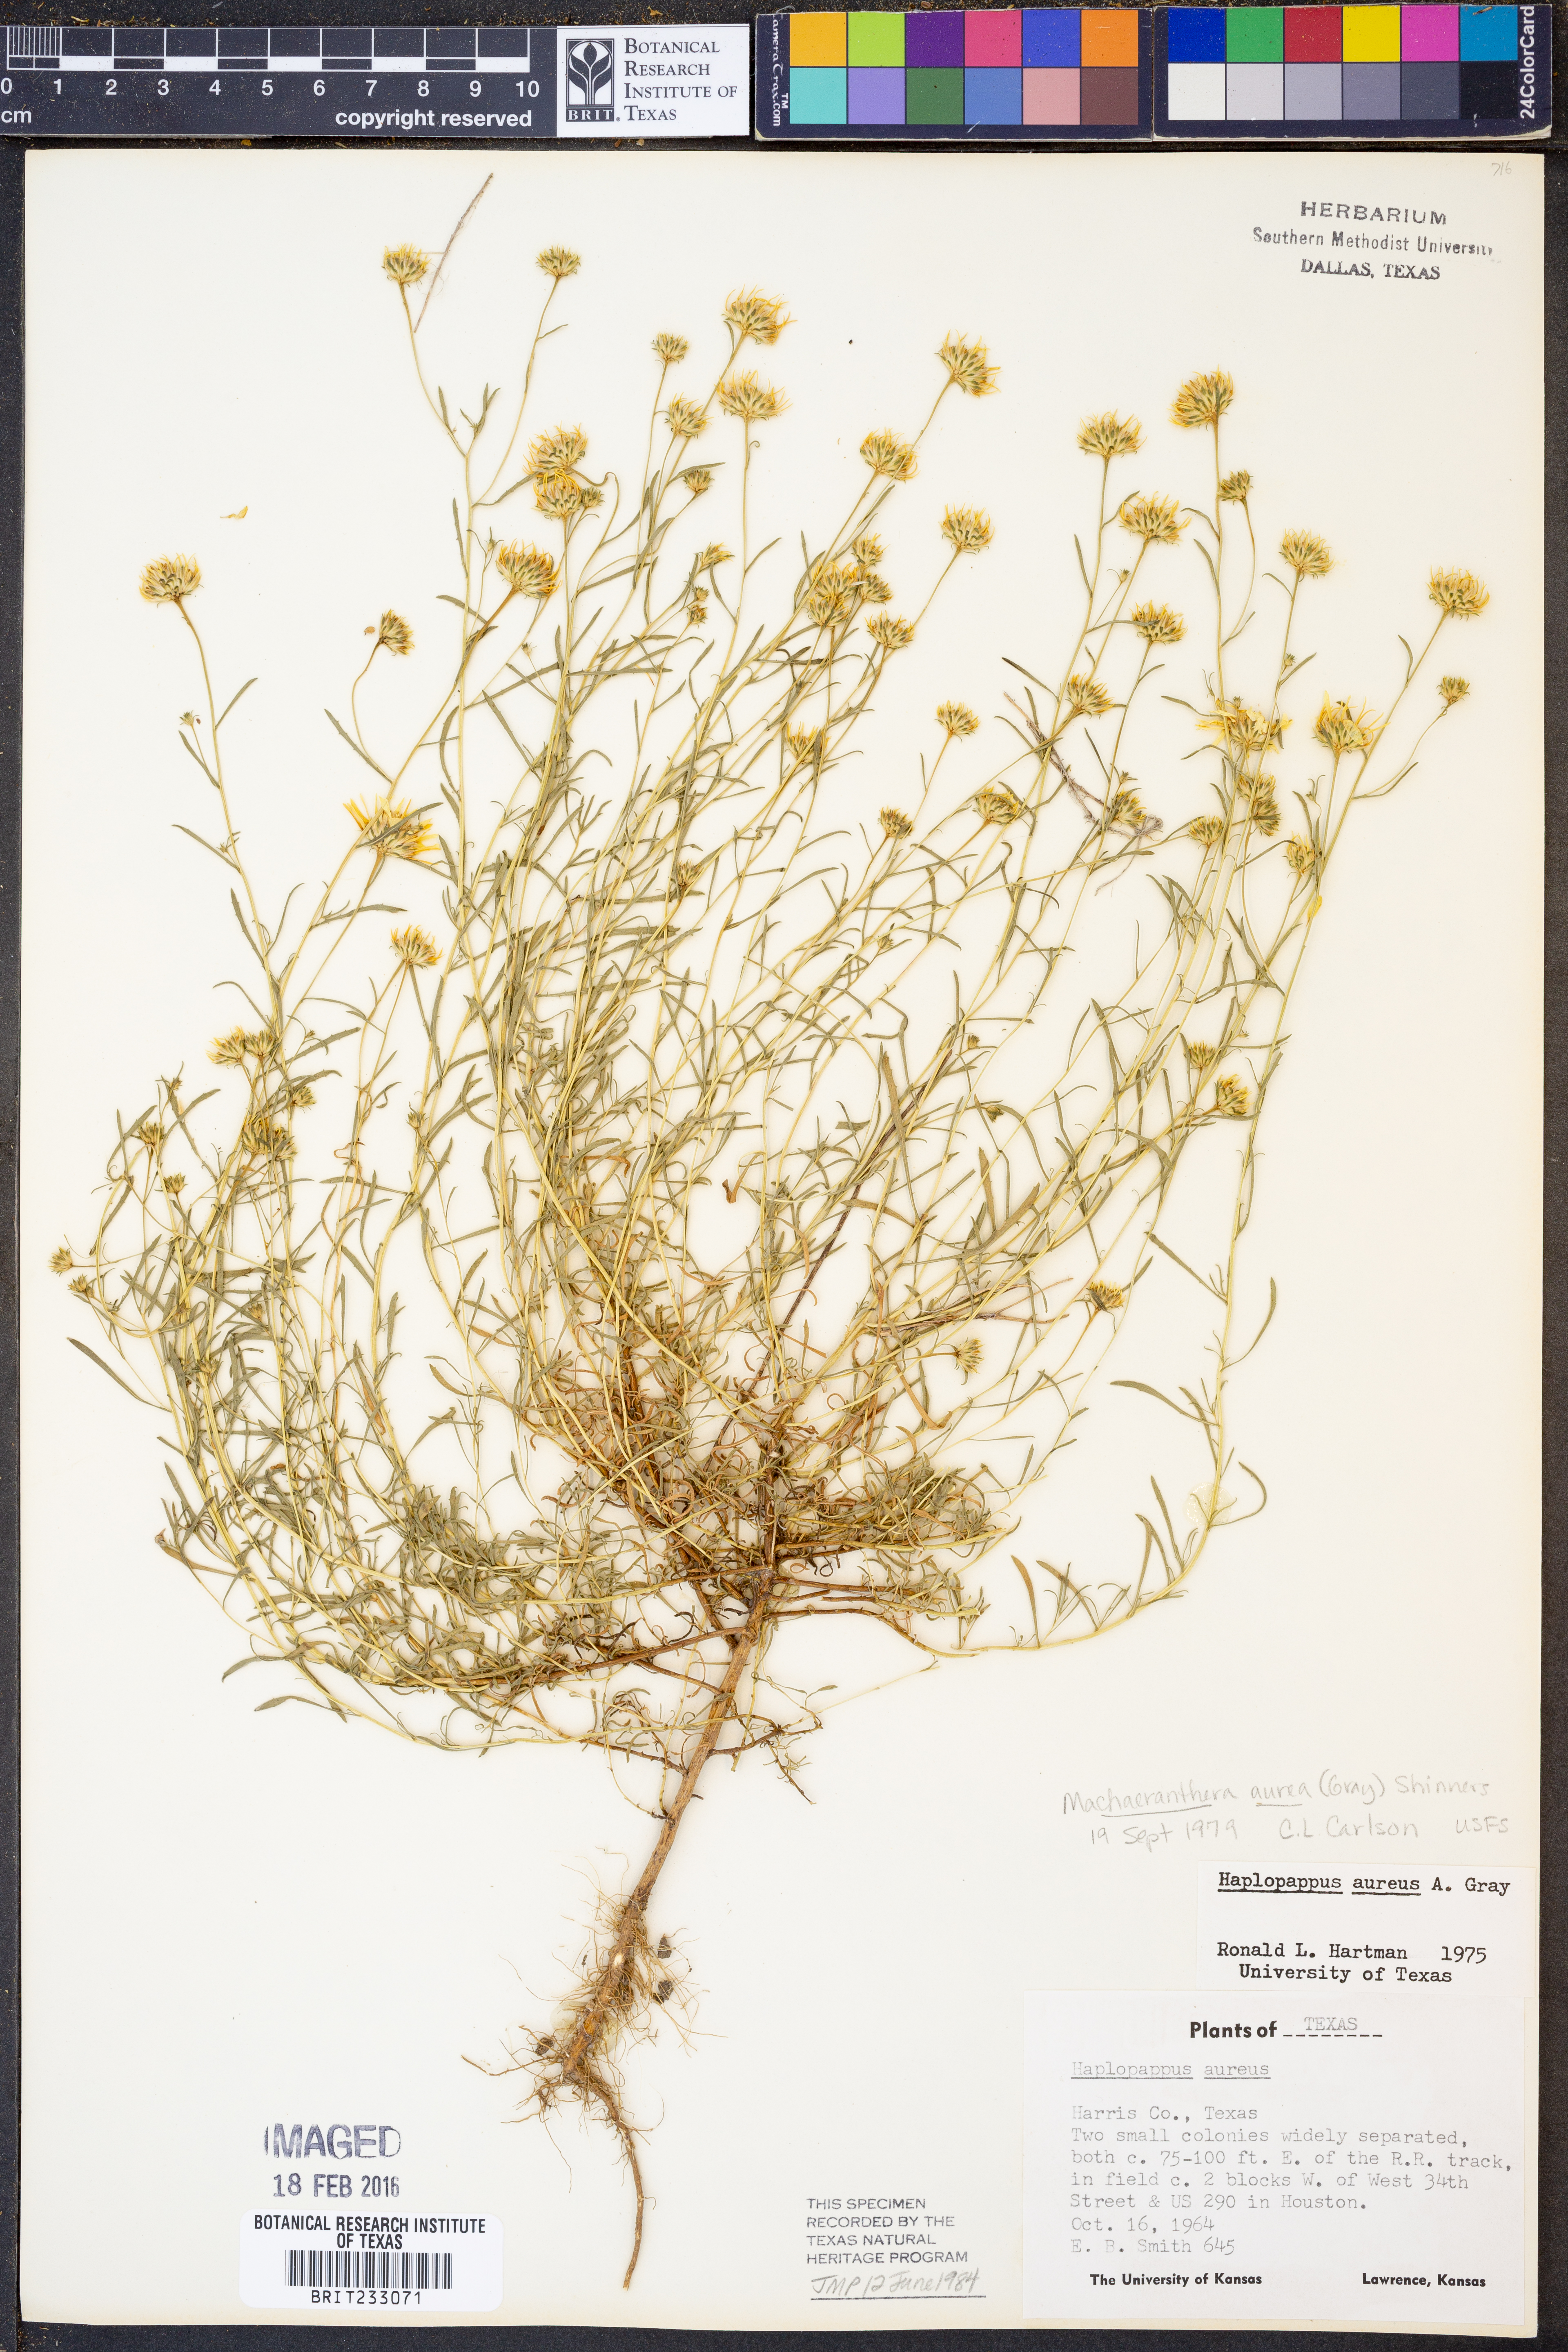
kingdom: Plantae
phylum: Tracheophyta
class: Magnoliopsida
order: Asterales
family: Asteraceae
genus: Rayjacksonia
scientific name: Rayjacksonia aurea
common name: Houston camphor daisy
